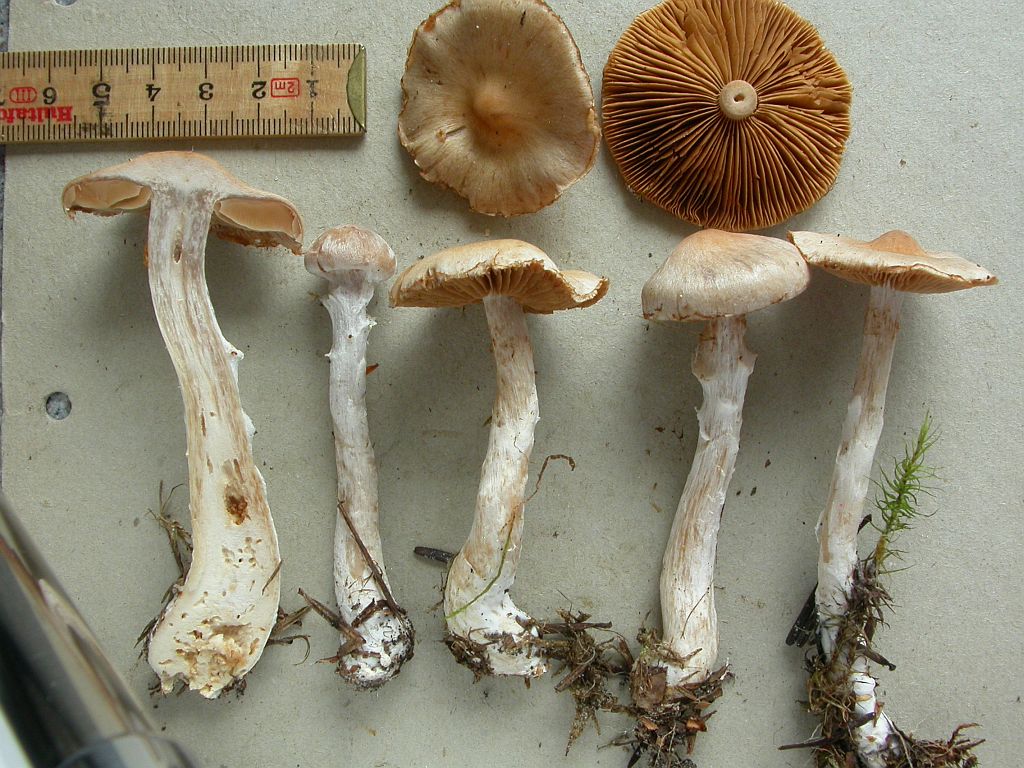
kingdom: Fungi
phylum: Basidiomycota
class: Agaricomycetes
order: Agaricales
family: Cortinariaceae
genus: Cortinarius
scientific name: Cortinarius hydrotelamonioides
